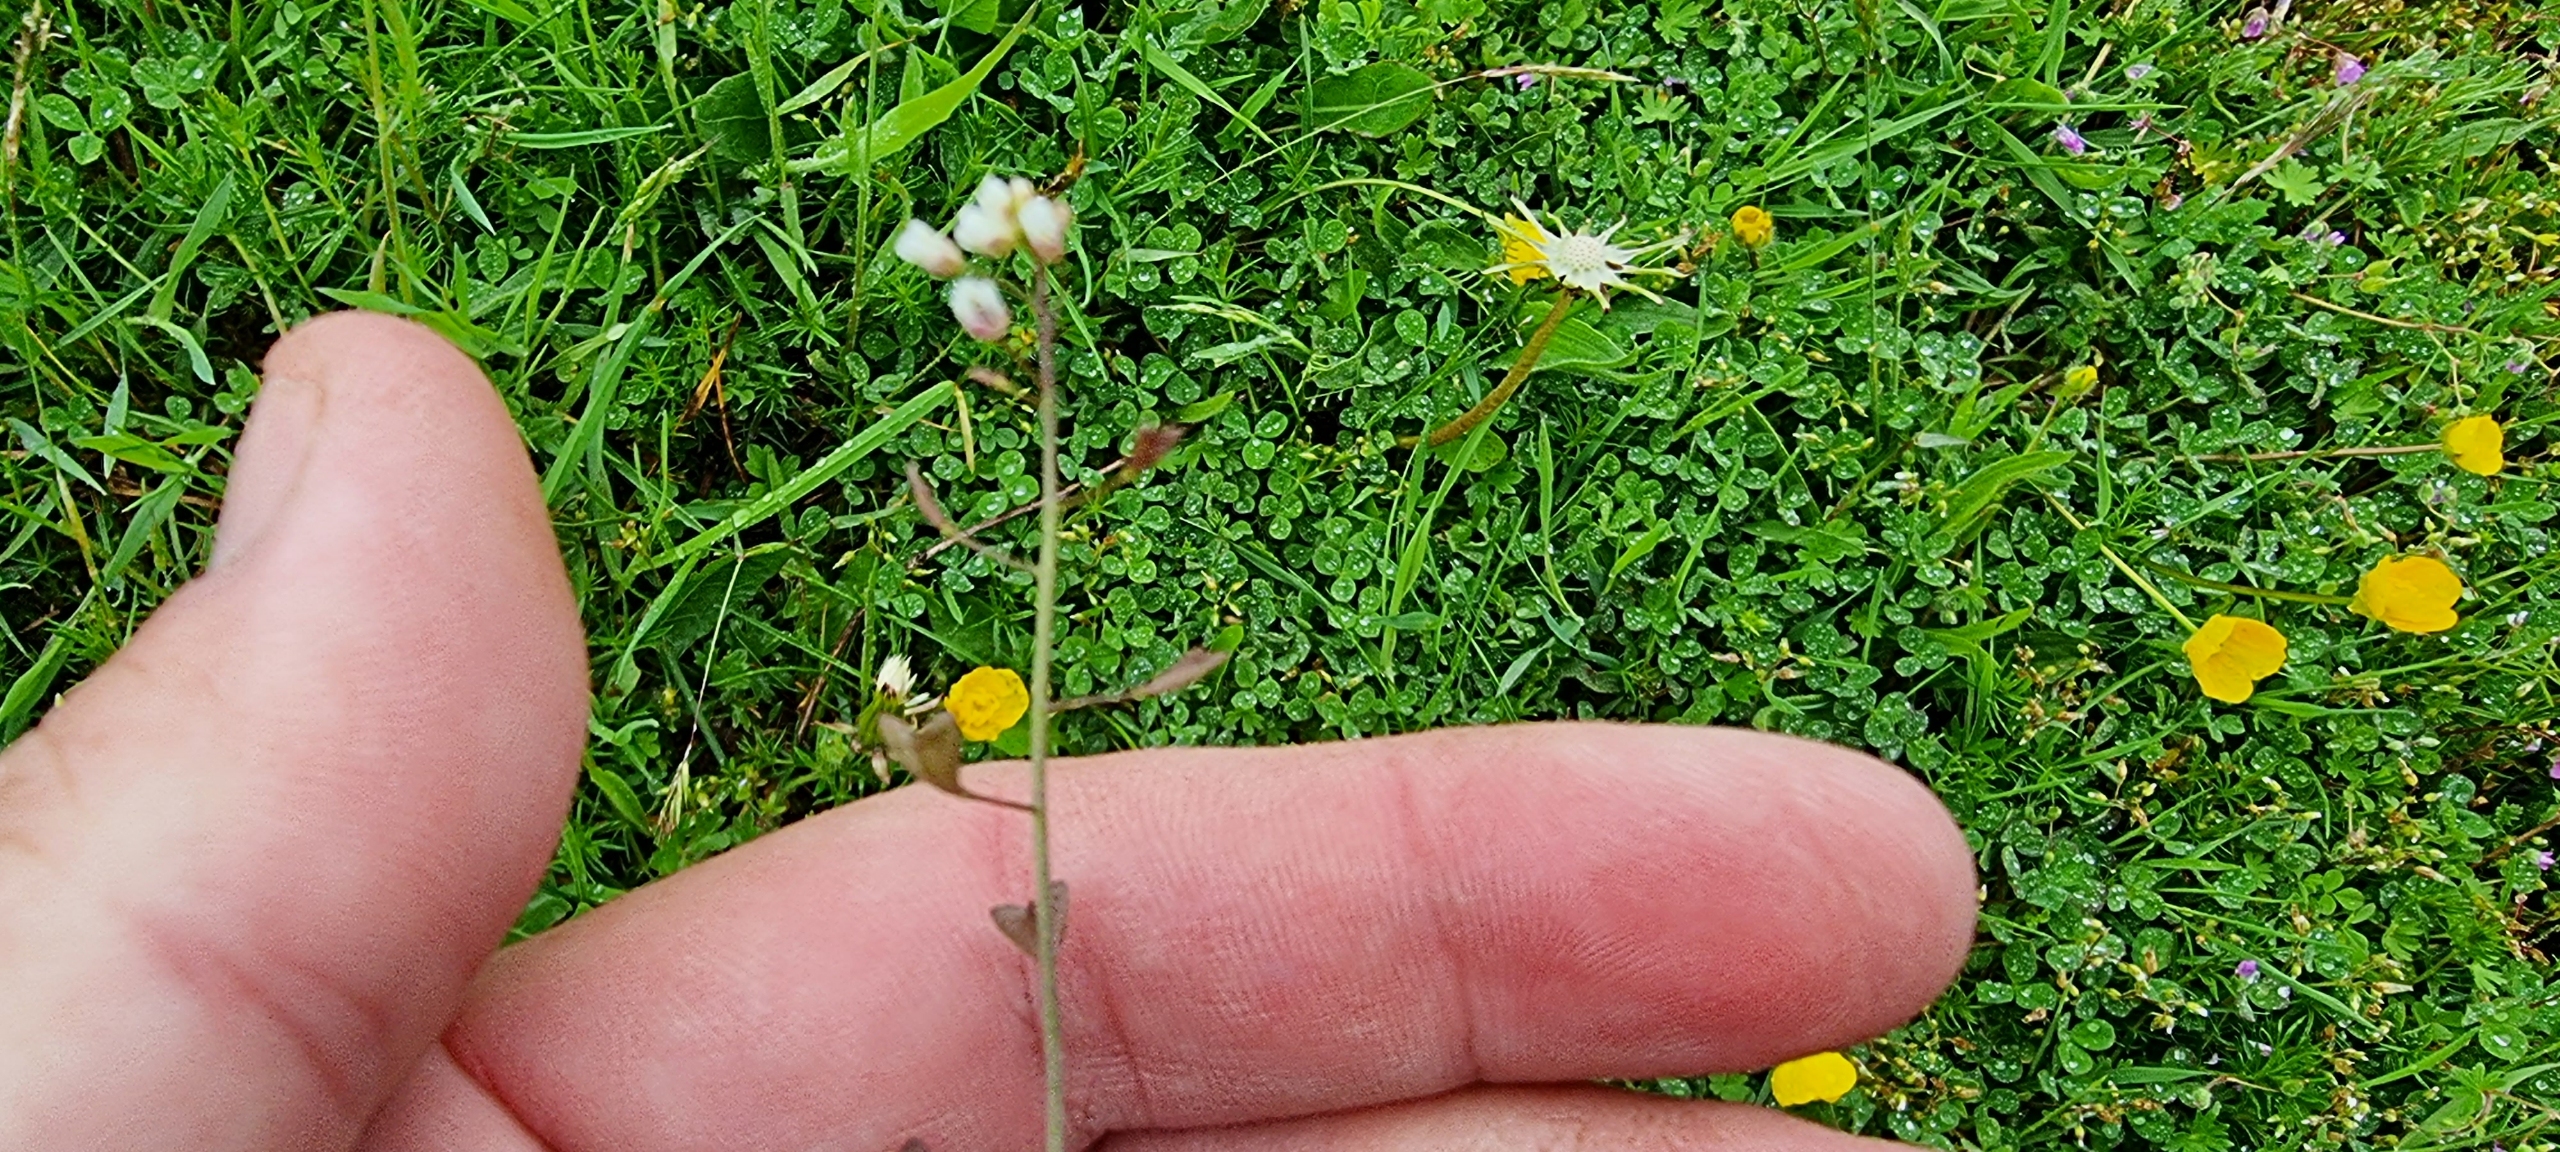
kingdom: Plantae
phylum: Tracheophyta
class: Magnoliopsida
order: Brassicales
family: Brassicaceae
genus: Capsella
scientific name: Capsella bursa-pastoris
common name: Hyrdetaske
